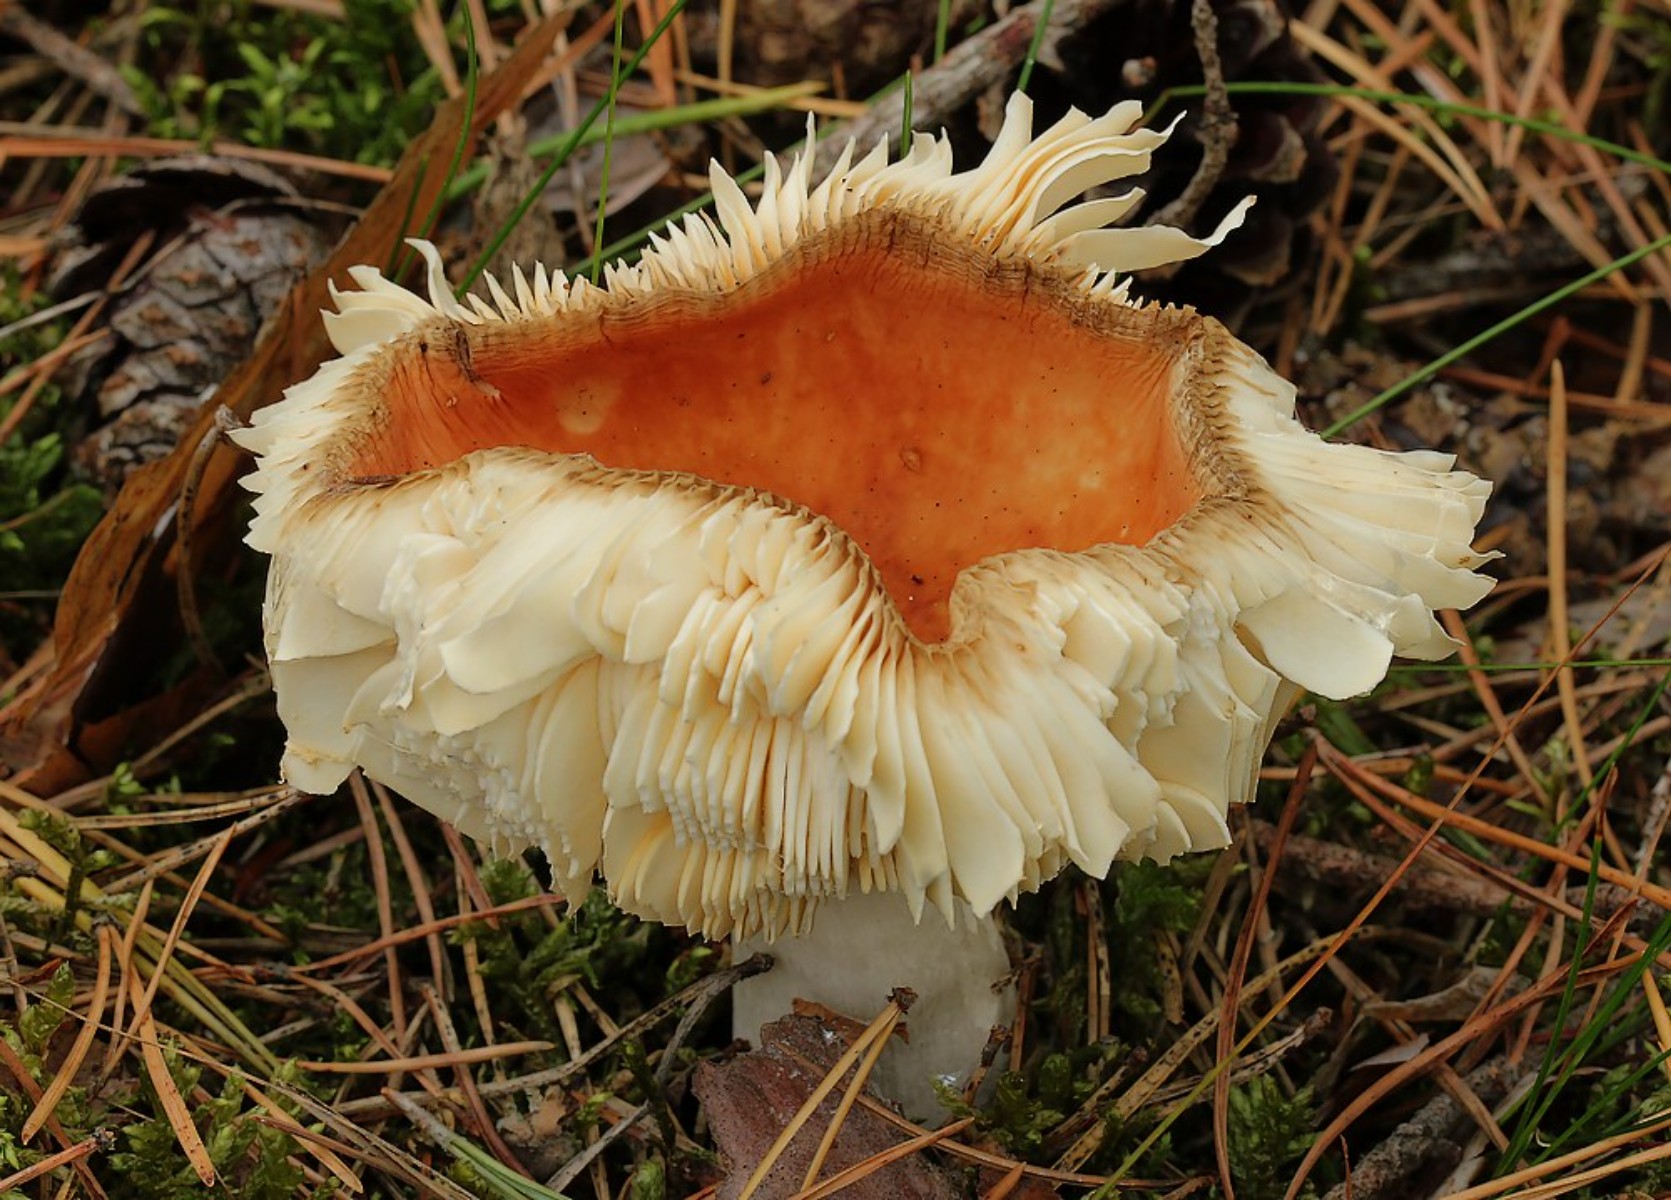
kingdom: Fungi
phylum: Basidiomycota
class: Agaricomycetes
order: Russulales
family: Russulaceae
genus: Russula
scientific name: Russula paludosa
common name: prægtig skørhat
